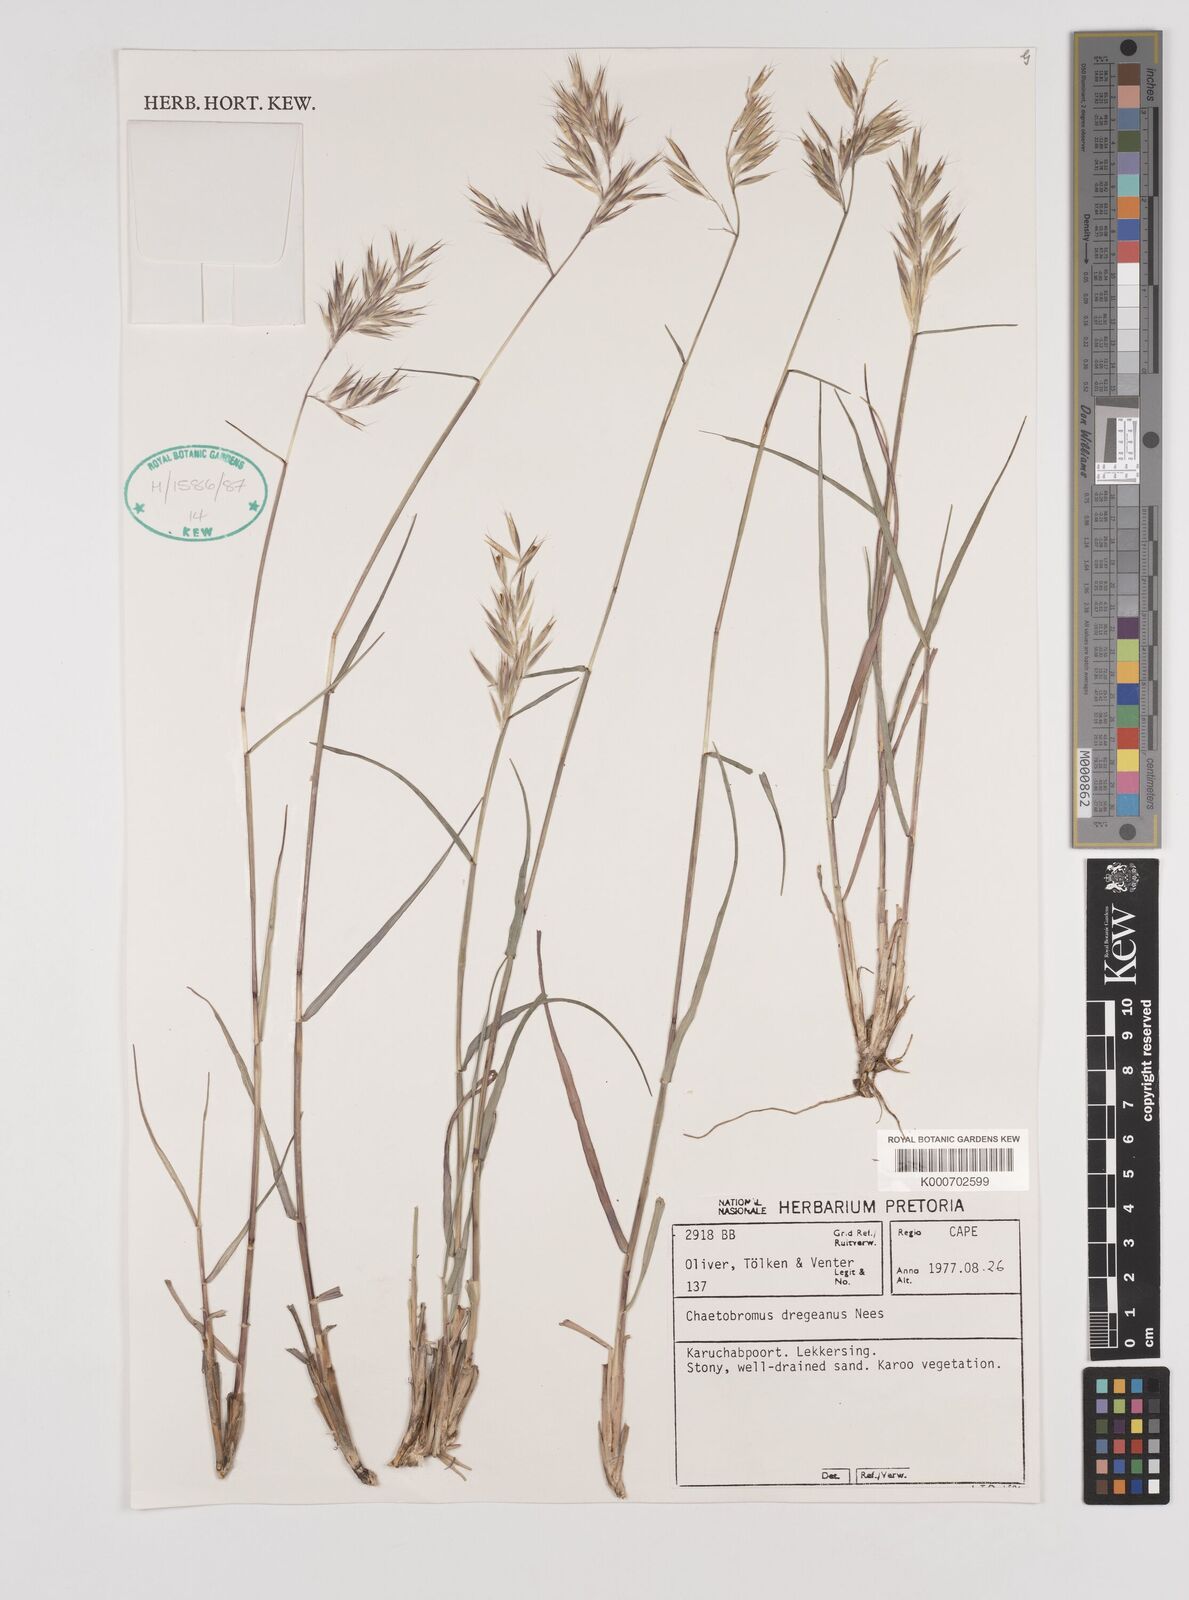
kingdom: Plantae
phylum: Tracheophyta
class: Liliopsida
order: Poales
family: Poaceae
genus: Chaetobromus
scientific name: Chaetobromus involucratus
